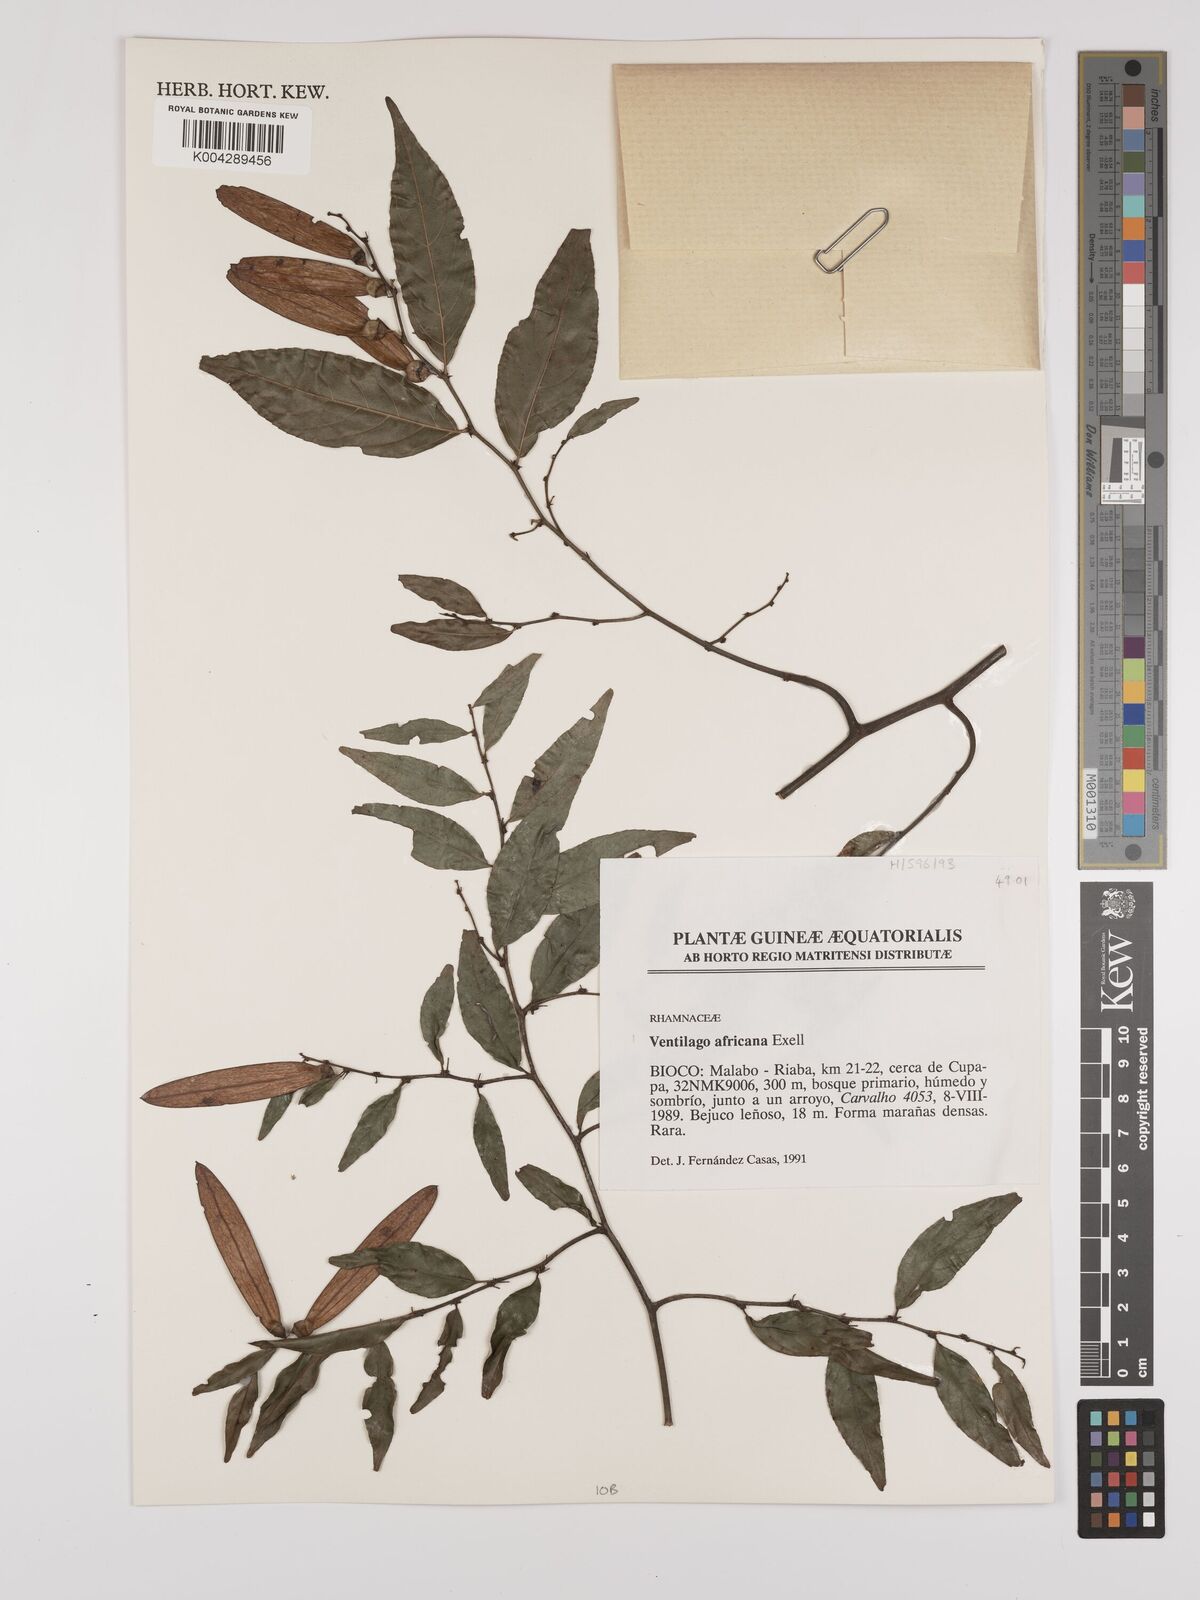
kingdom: Plantae
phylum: Tracheophyta
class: Magnoliopsida
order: Rosales
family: Rhamnaceae
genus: Ventilago
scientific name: Ventilago africana
